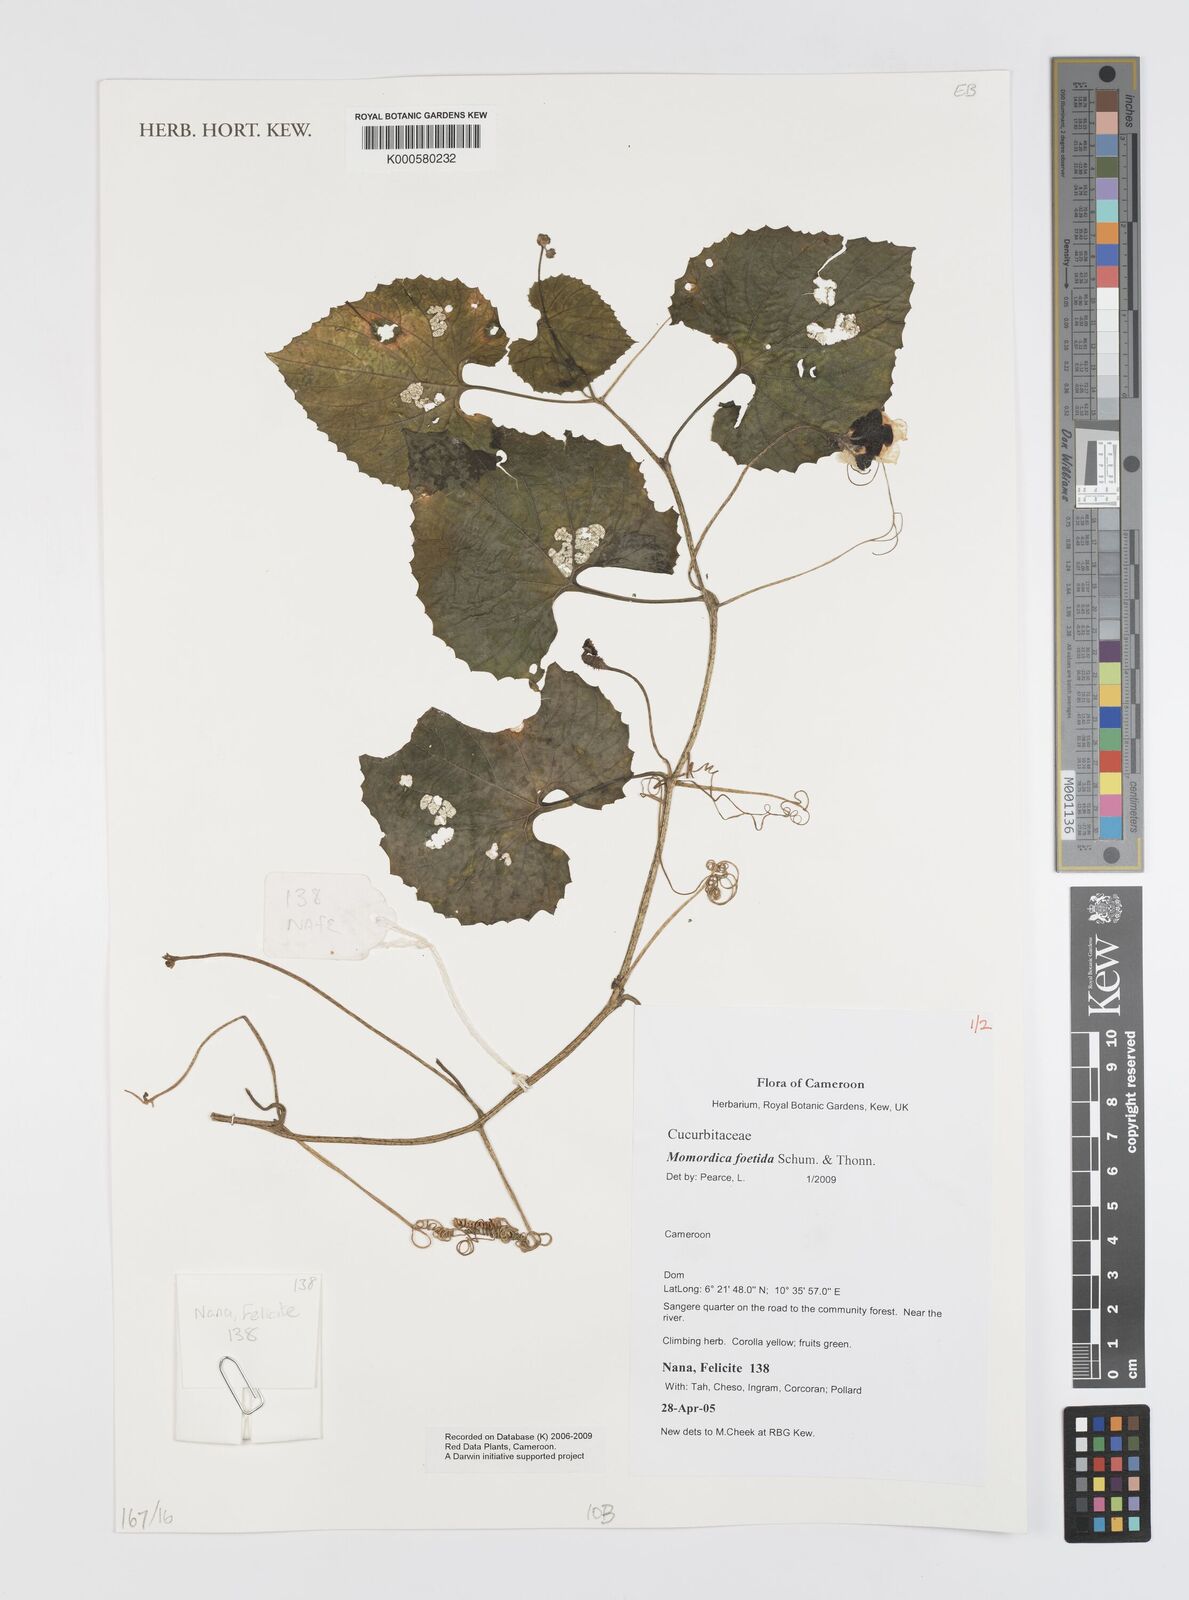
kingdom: Plantae
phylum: Tracheophyta
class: Magnoliopsida
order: Cucurbitales
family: Cucurbitaceae
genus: Momordica
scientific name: Momordica foetida
